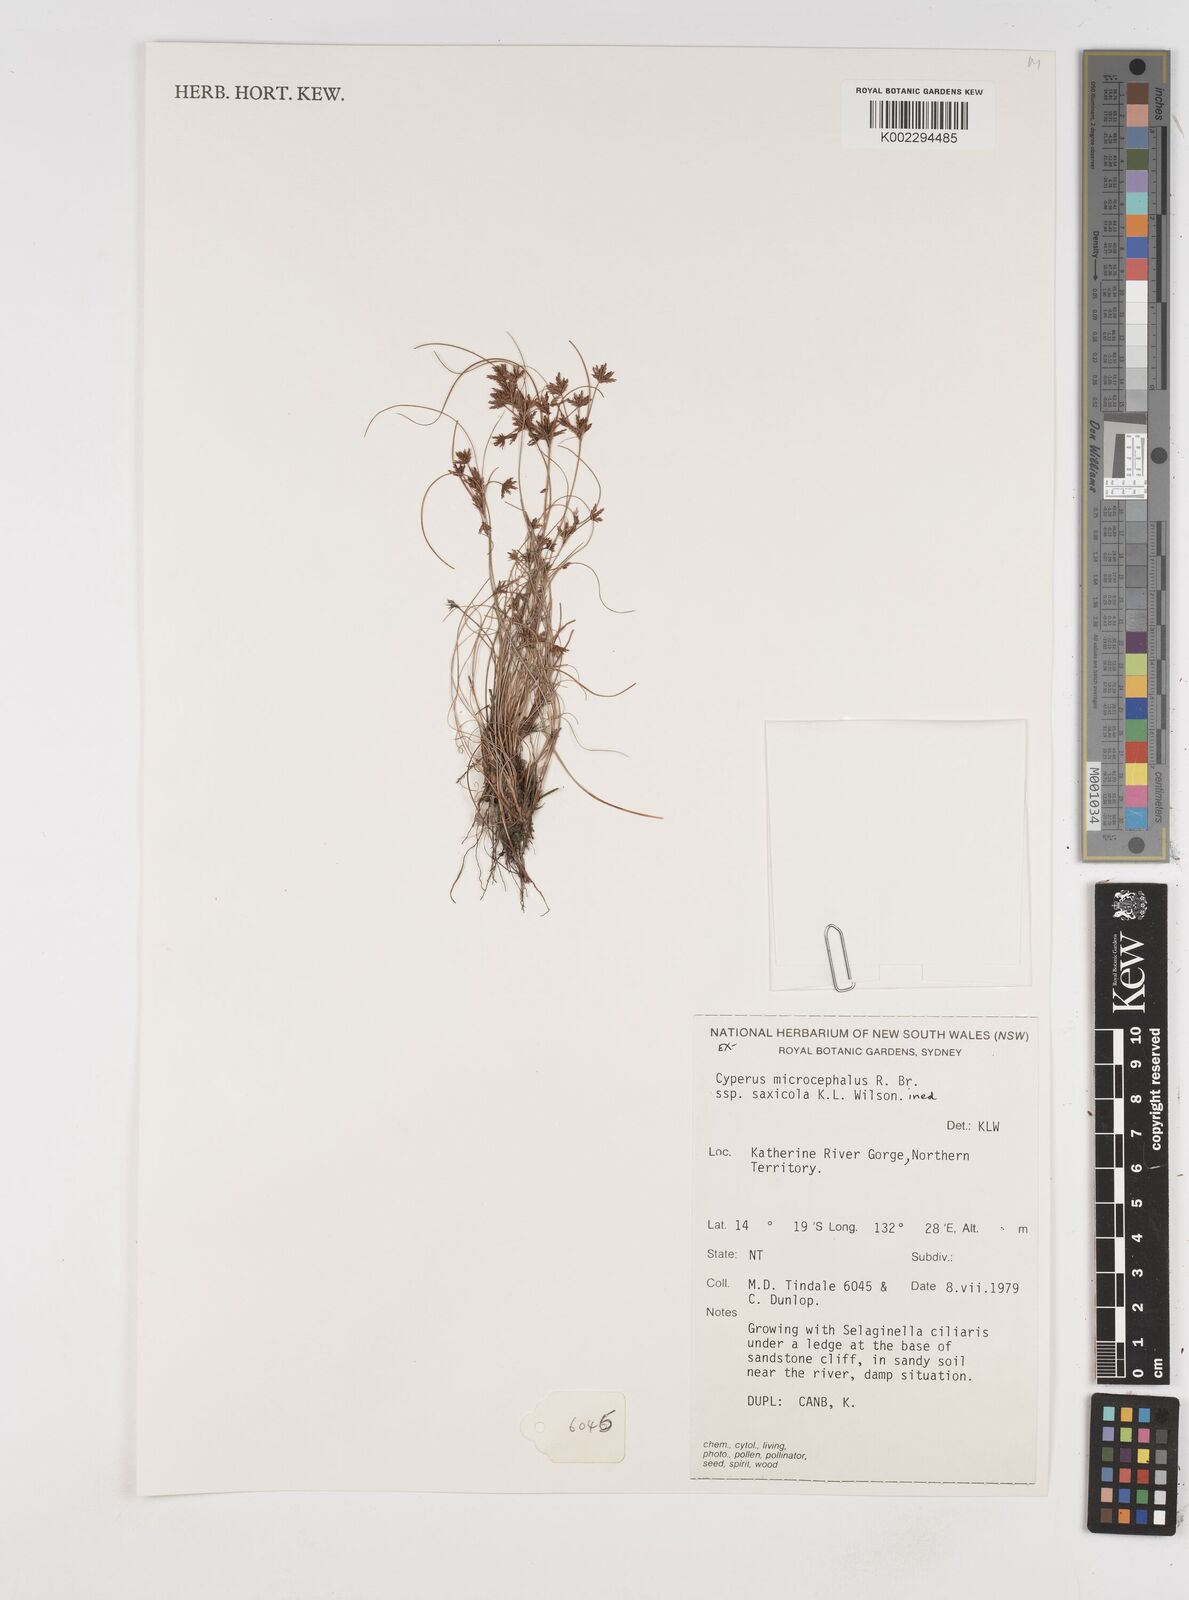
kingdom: Plantae
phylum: Tracheophyta
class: Liliopsida
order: Poales
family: Cyperaceae
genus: Cyperus
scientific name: Cyperus microcephalus
